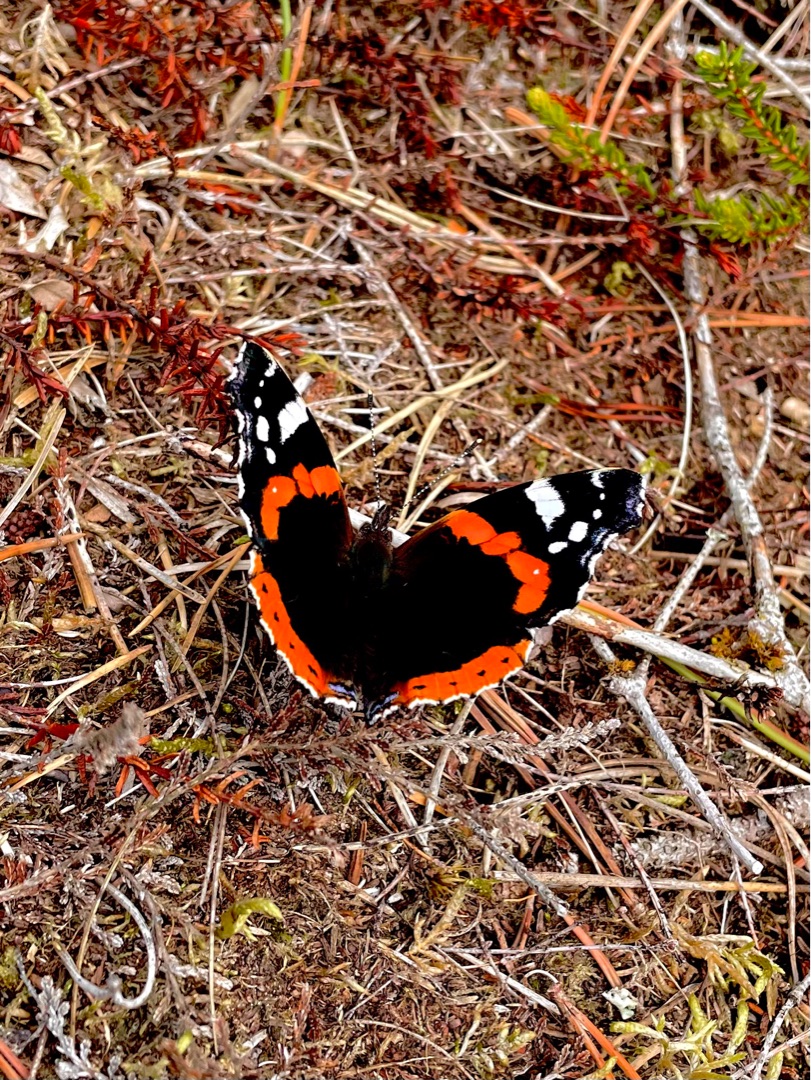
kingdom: Animalia
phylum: Arthropoda
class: Insecta
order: Lepidoptera
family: Nymphalidae
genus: Vanessa
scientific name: Vanessa atalanta
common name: Admiral
